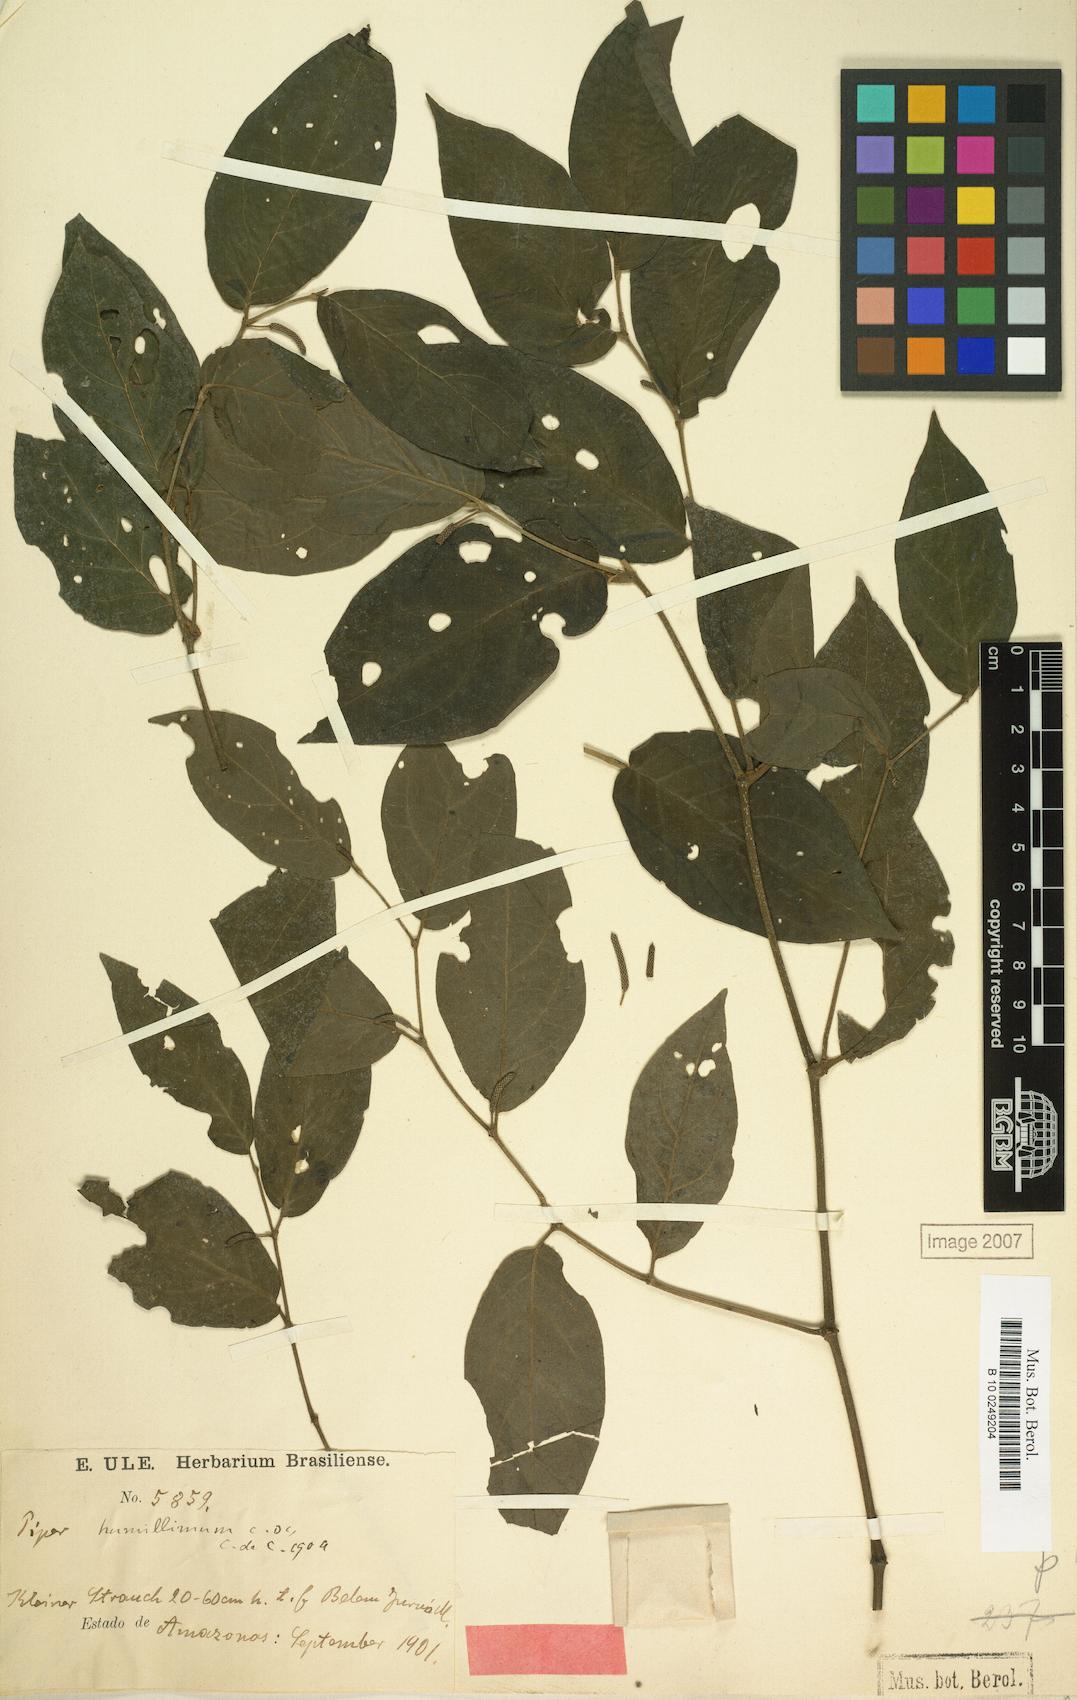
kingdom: Plantae
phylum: Tracheophyta
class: Magnoliopsida
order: Piperales
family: Piperaceae
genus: Piper
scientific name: Piper humillimum
